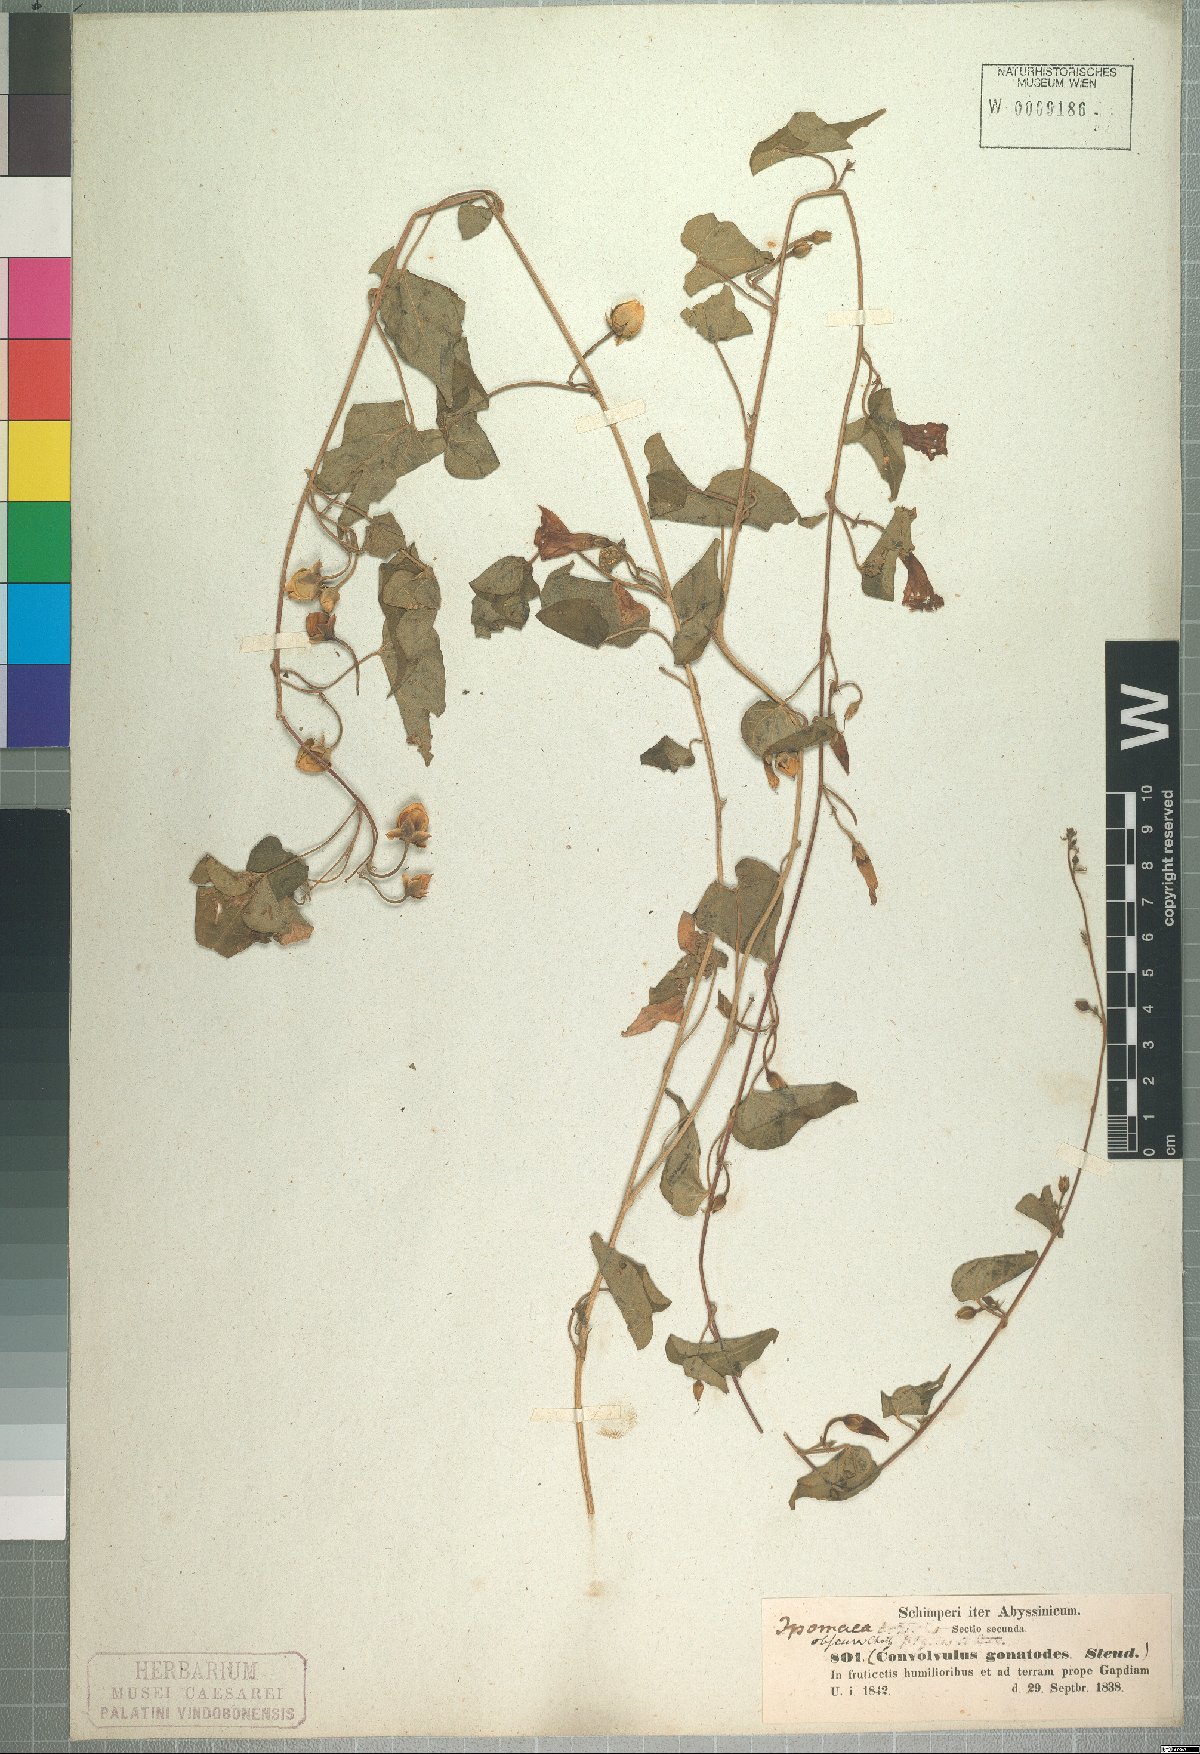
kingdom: Plantae
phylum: Tracheophyta
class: Magnoliopsida
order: Solanales
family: Convolvulaceae
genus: Ipomoea
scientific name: Ipomoea obscura
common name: Obscure morning-glory
